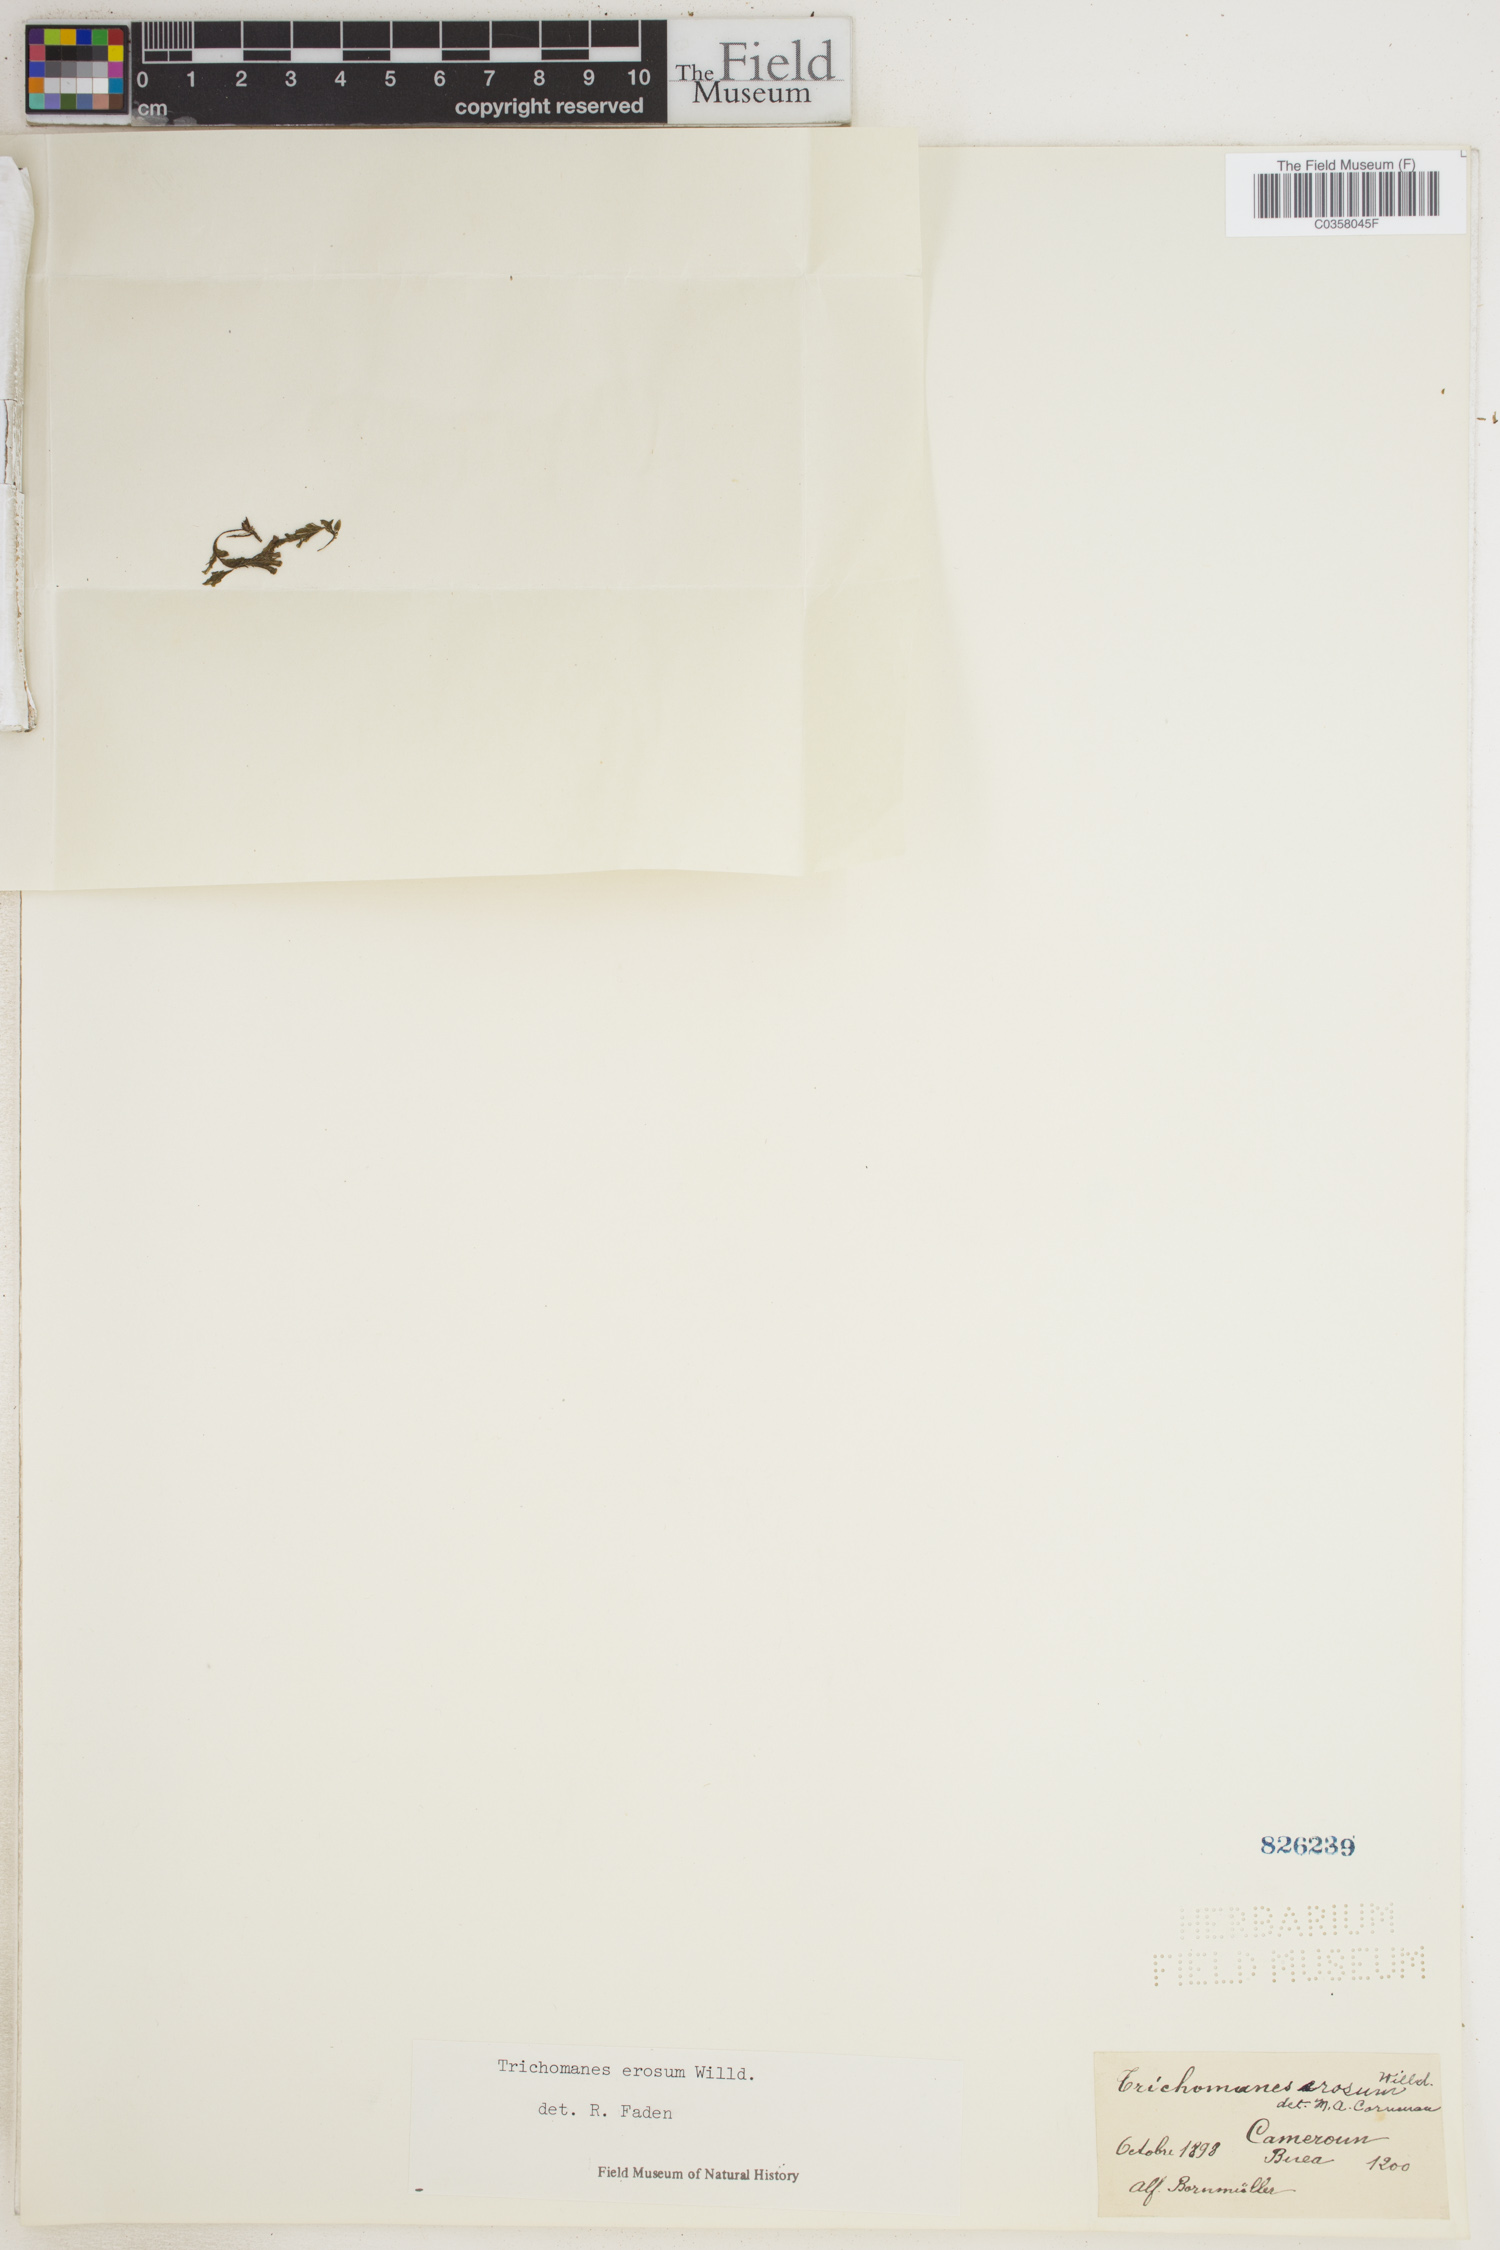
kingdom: Plantae
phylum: Tracheophyta
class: Polypodiopsida
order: Hymenophyllales
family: Hymenophyllaceae
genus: Didymoglossum
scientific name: Didymoglossum erosum
